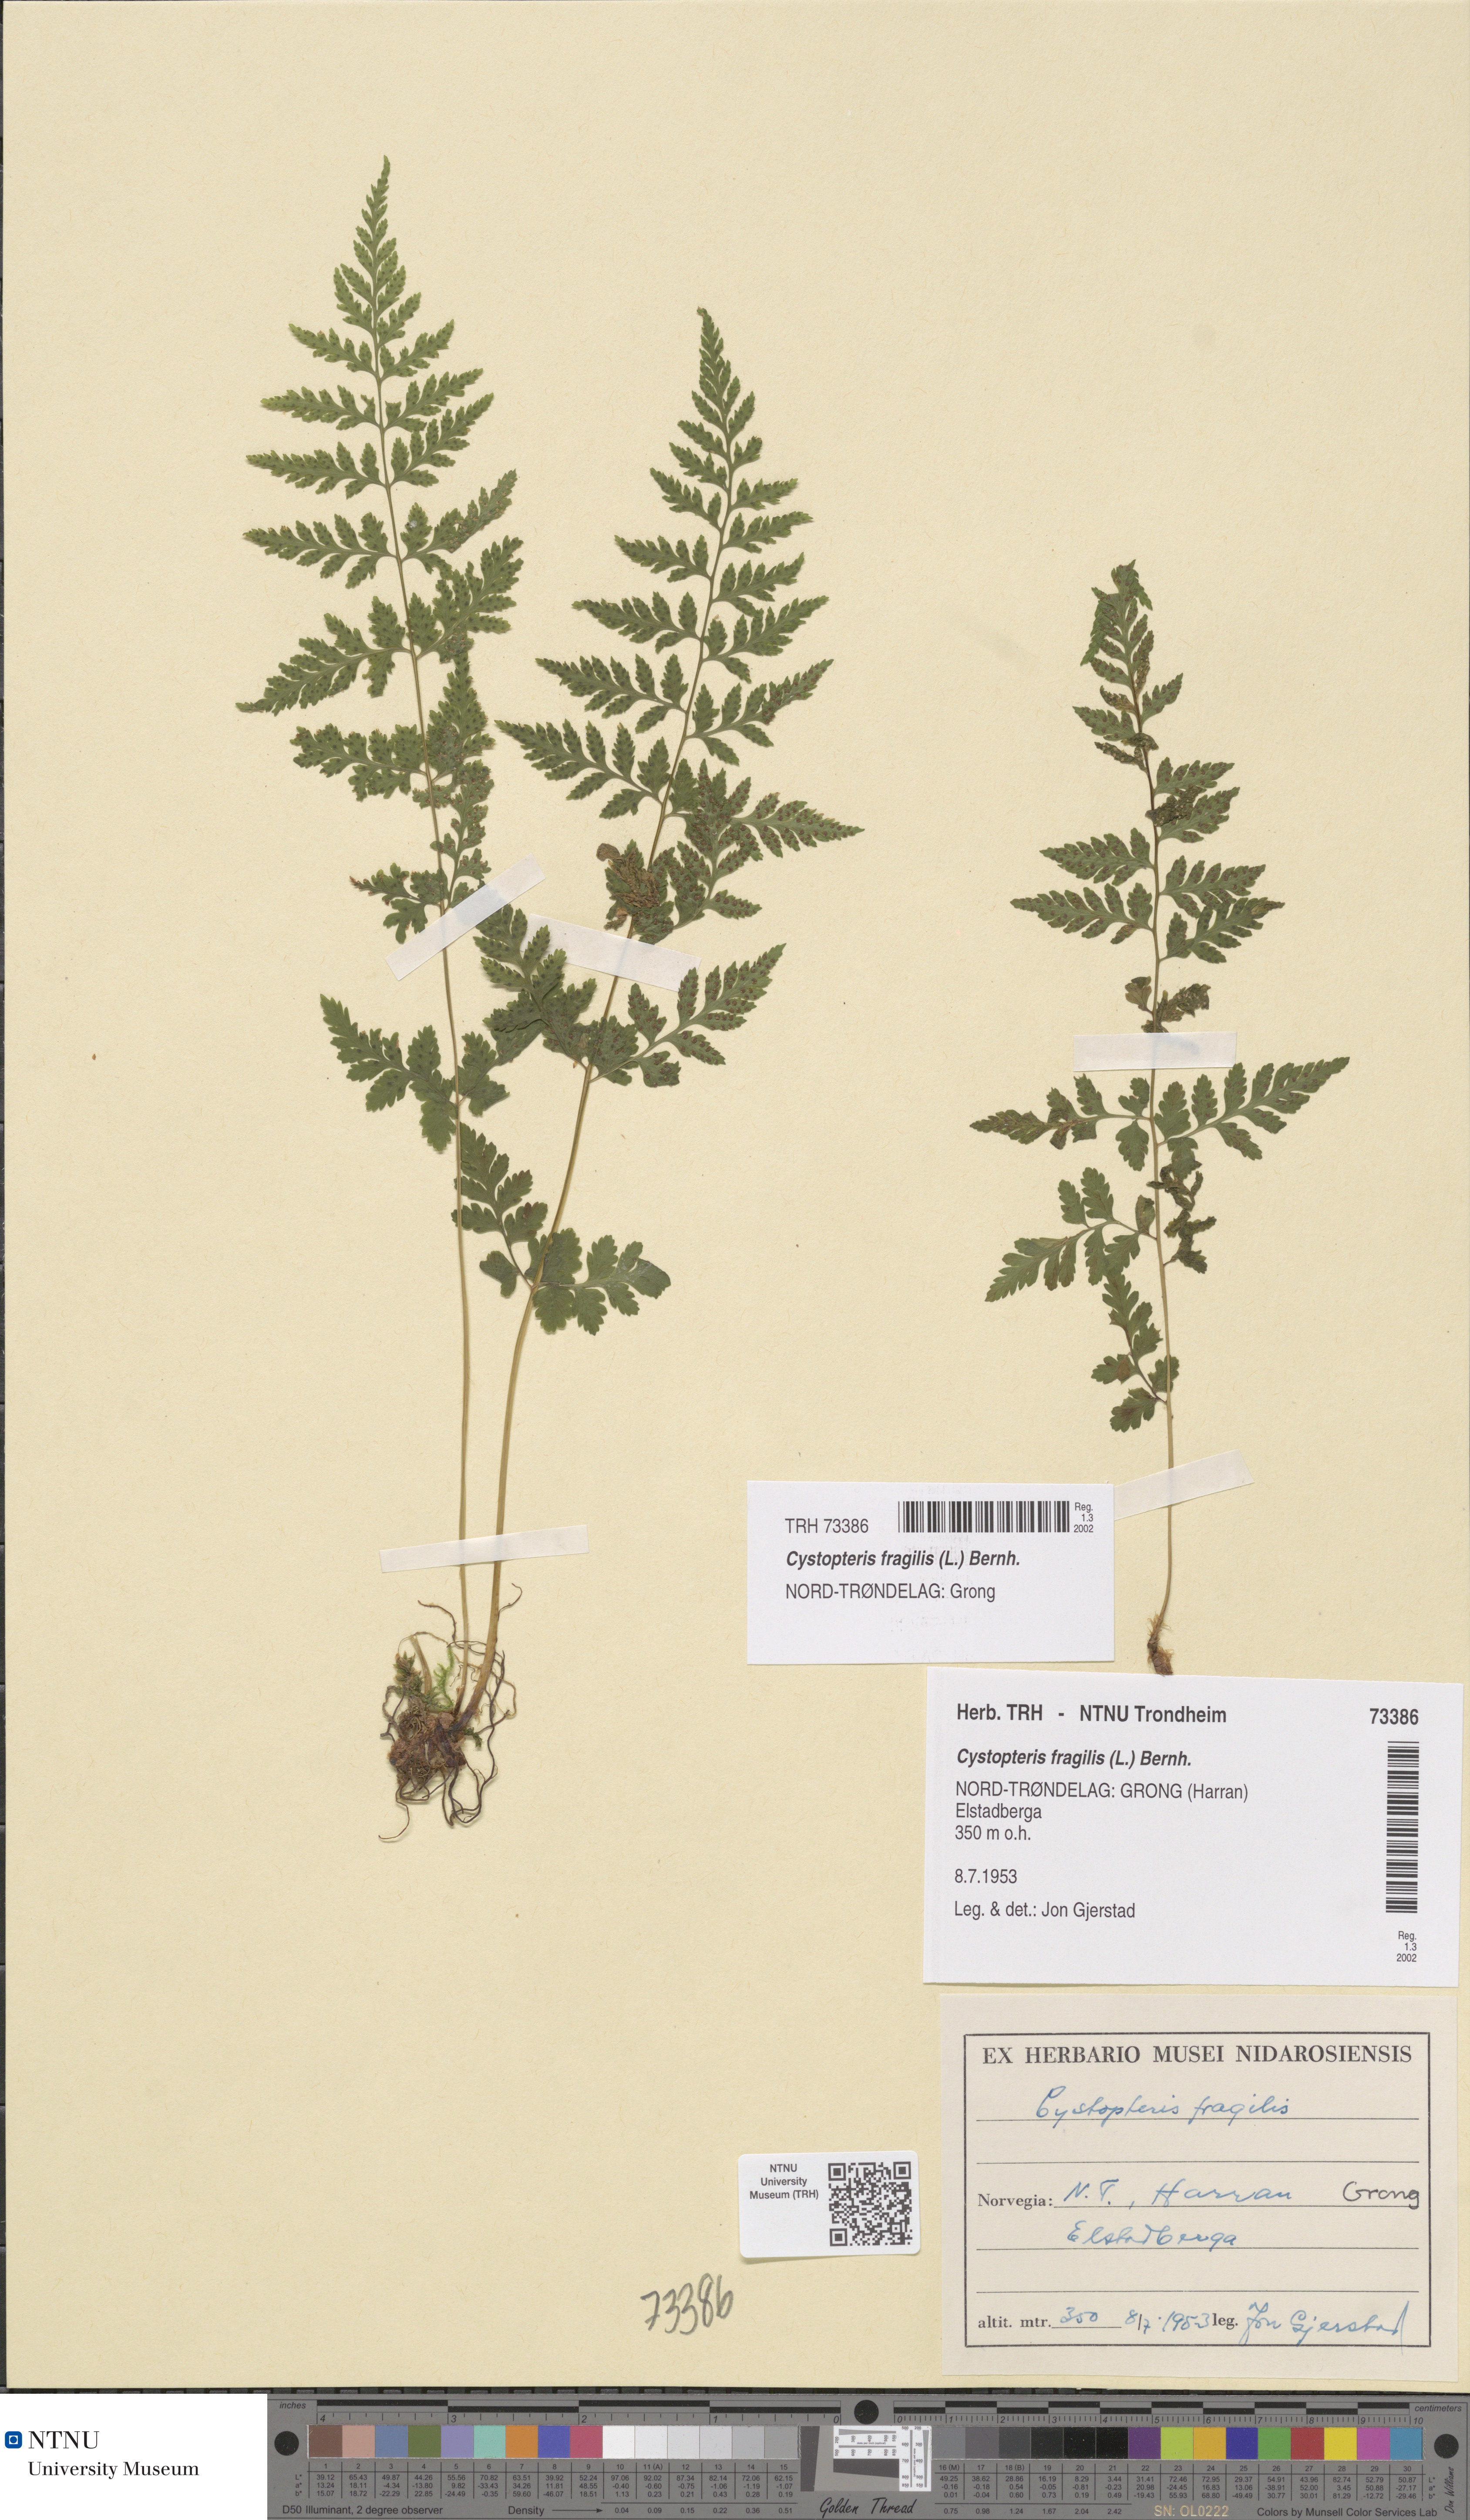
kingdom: Plantae
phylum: Tracheophyta
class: Polypodiopsida
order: Polypodiales
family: Cystopteridaceae
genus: Cystopteris
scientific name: Cystopteris fragilis
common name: Brittle bladder fern
